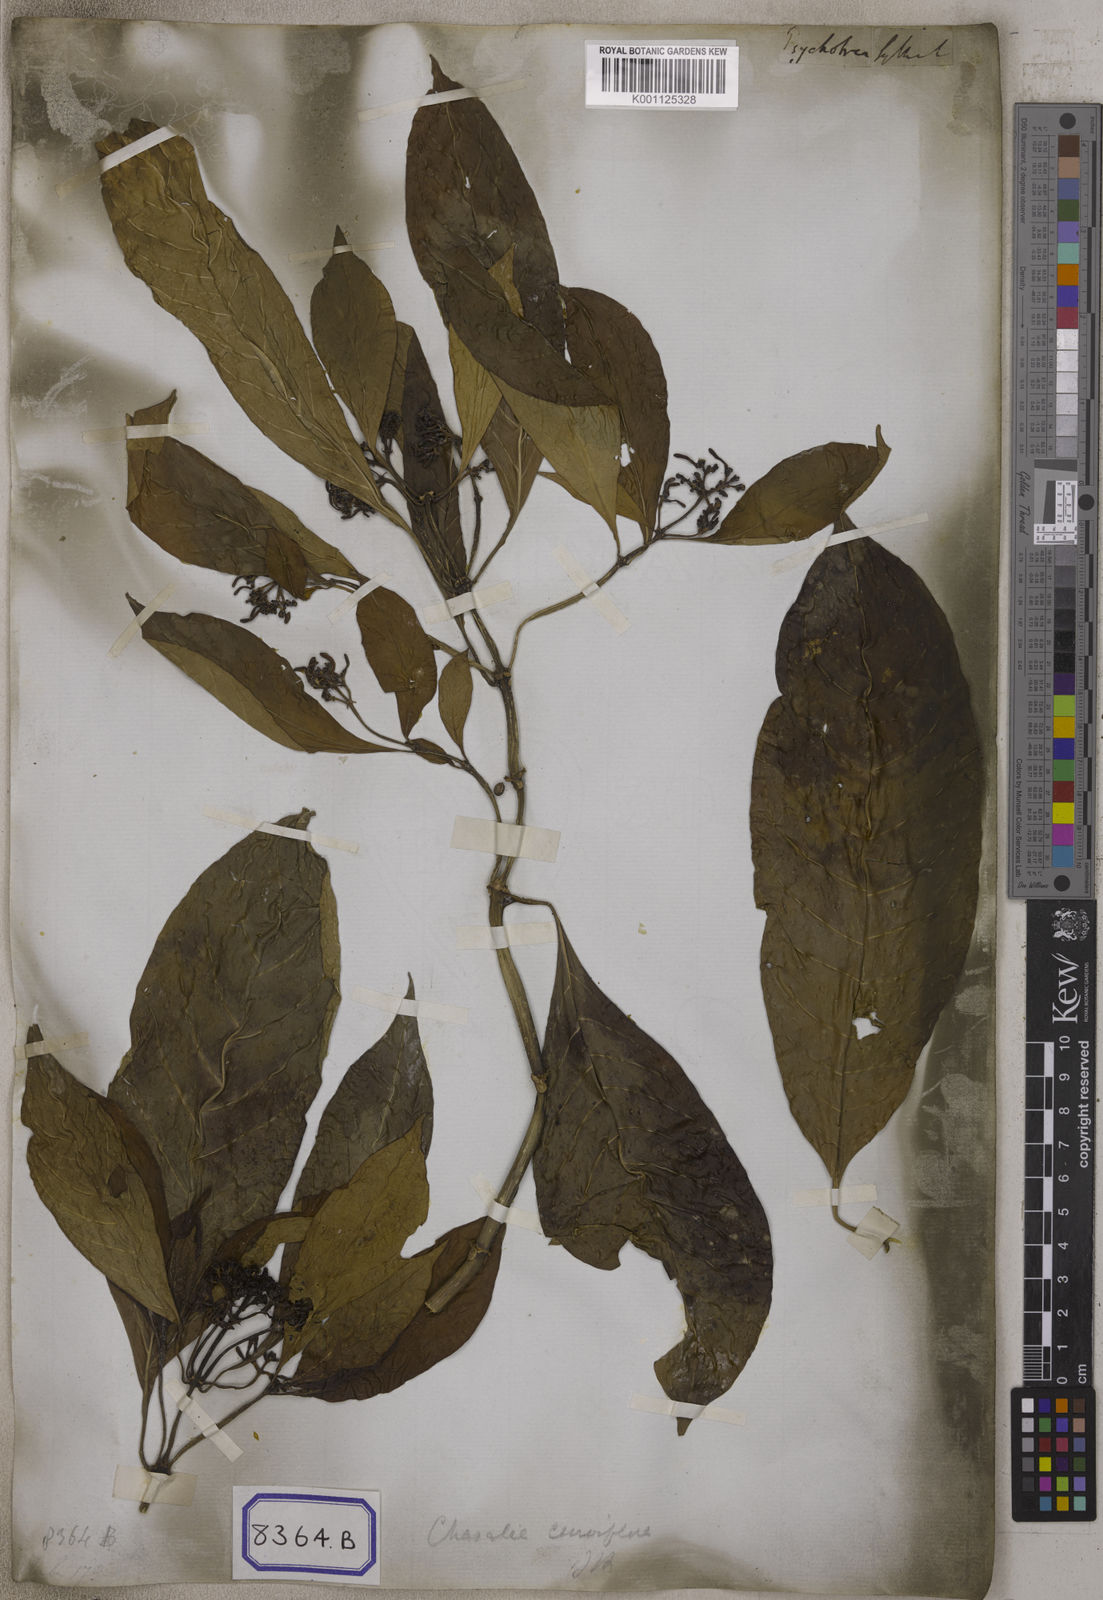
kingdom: Plantae
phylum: Tracheophyta
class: Magnoliopsida
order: Gentianales
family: Rubiaceae
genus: Chassalia
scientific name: Chassalia curviflora
